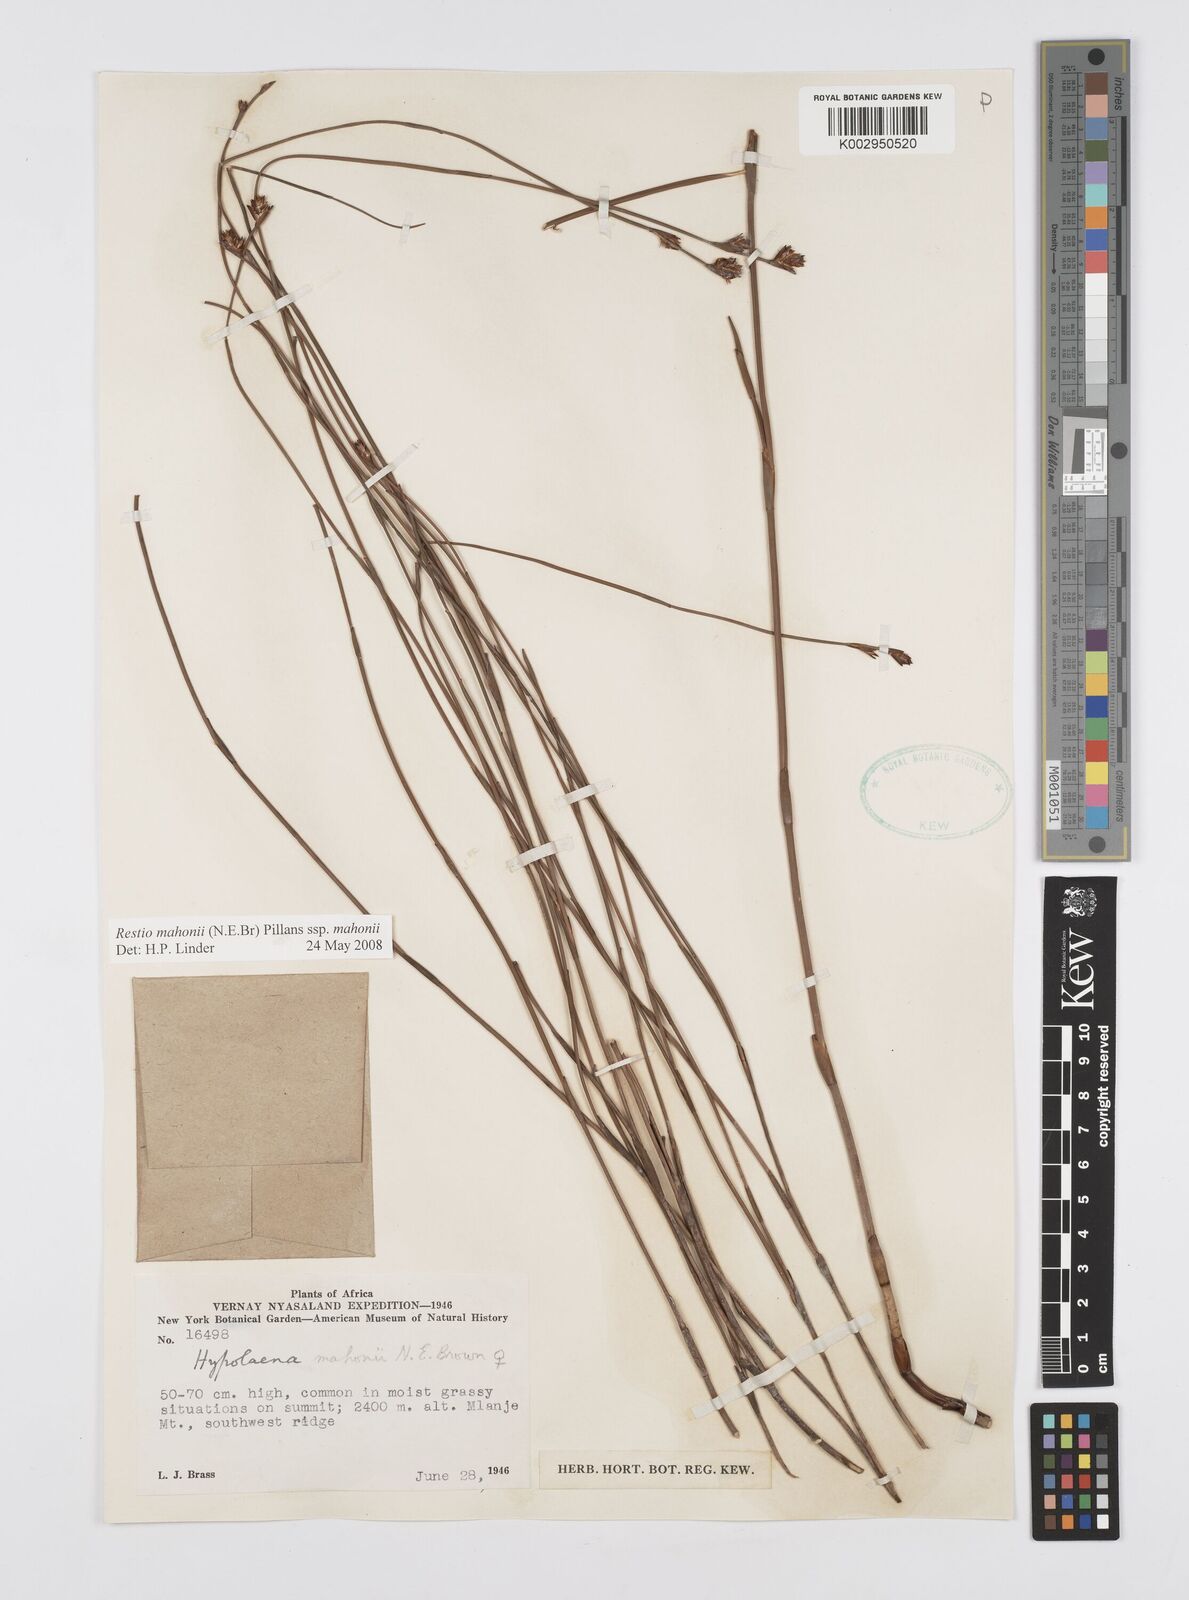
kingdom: Plantae
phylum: Tracheophyta
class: Liliopsida
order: Poales
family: Restionaceae
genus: Platycaulos
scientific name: Platycaulos mahonii
